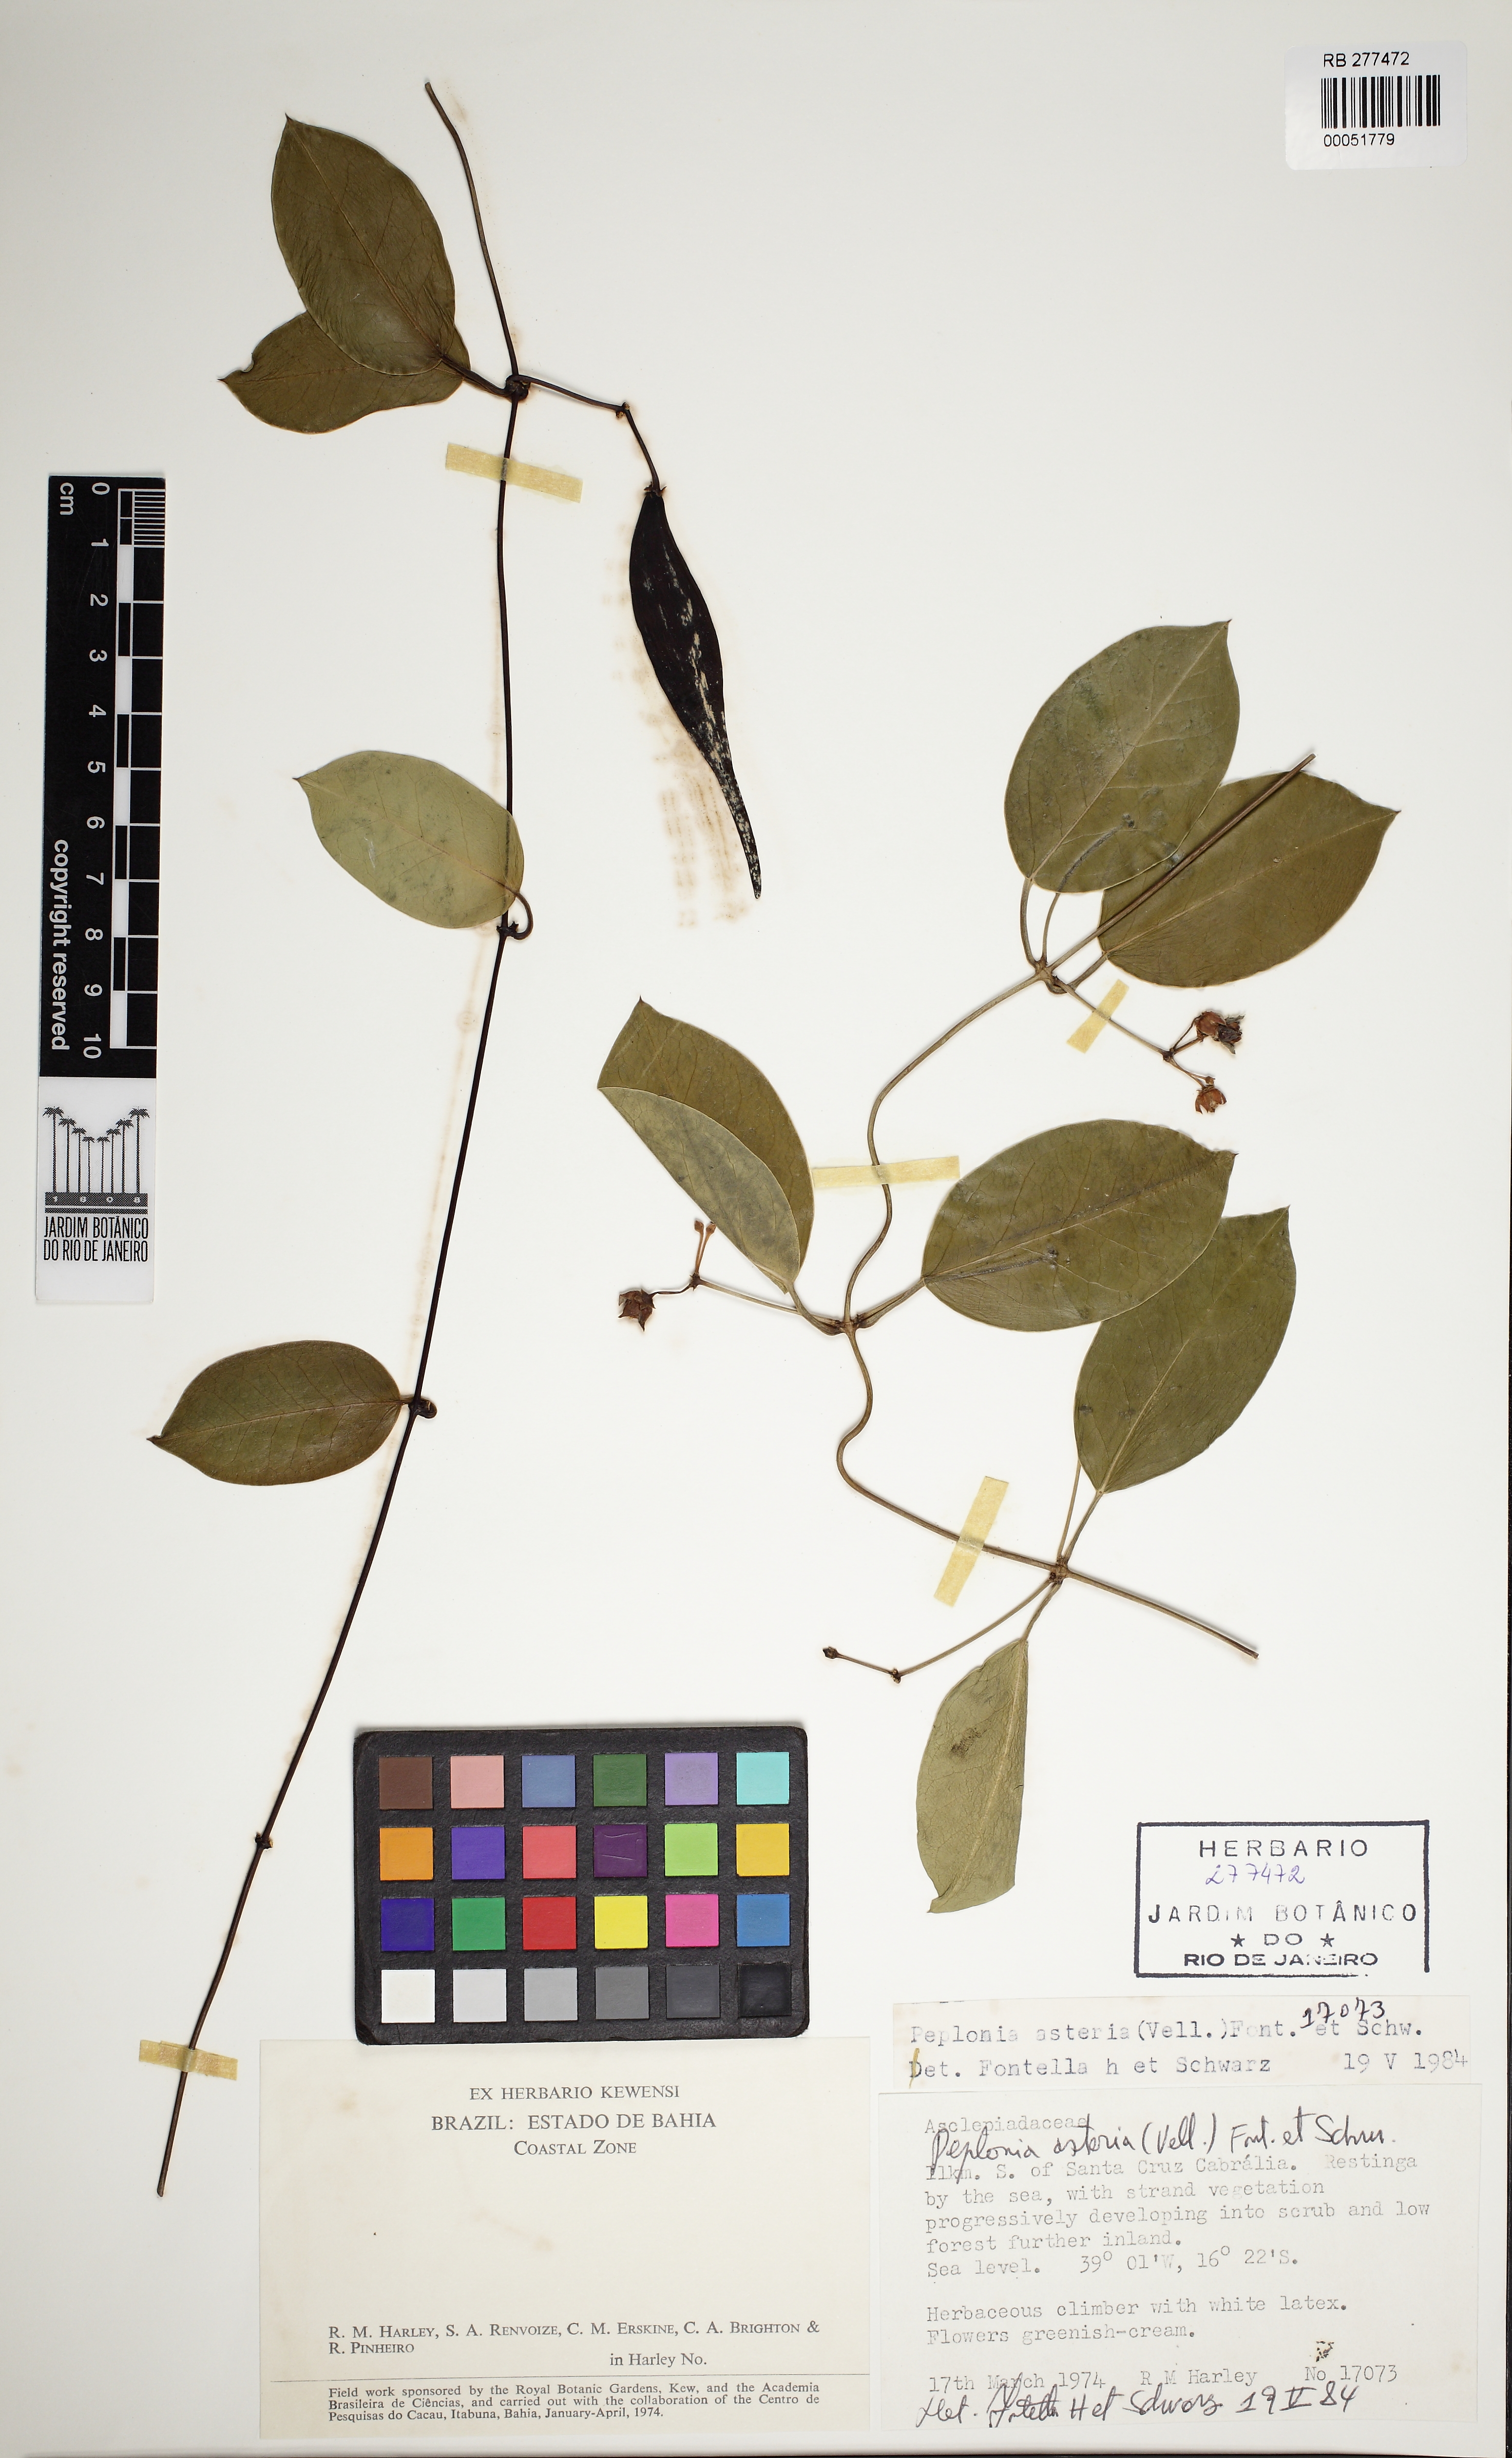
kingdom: Plantae
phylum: Tracheophyta
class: Magnoliopsida
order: Gentianales
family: Apocynaceae
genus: Peplonia
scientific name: Peplonia asteria
